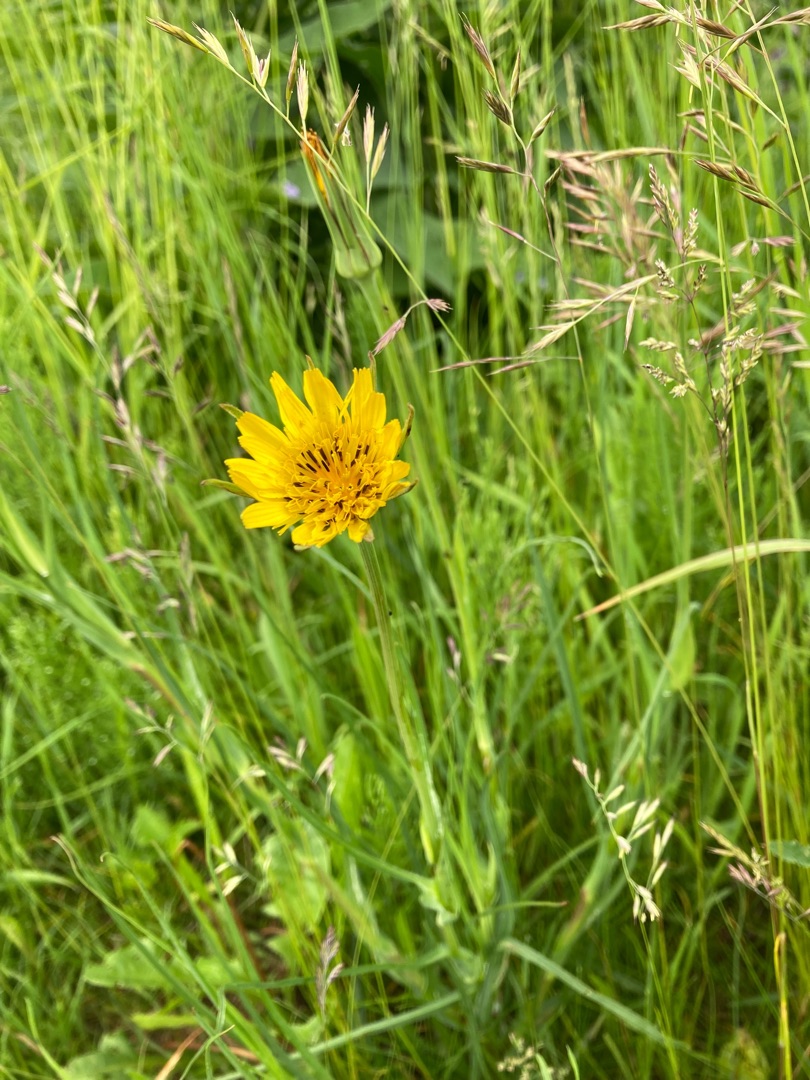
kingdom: Plantae
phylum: Tracheophyta
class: Magnoliopsida
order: Asterales
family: Asteraceae
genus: Tragopogon
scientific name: Tragopogon pratensis
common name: Eng-gedeskæg
